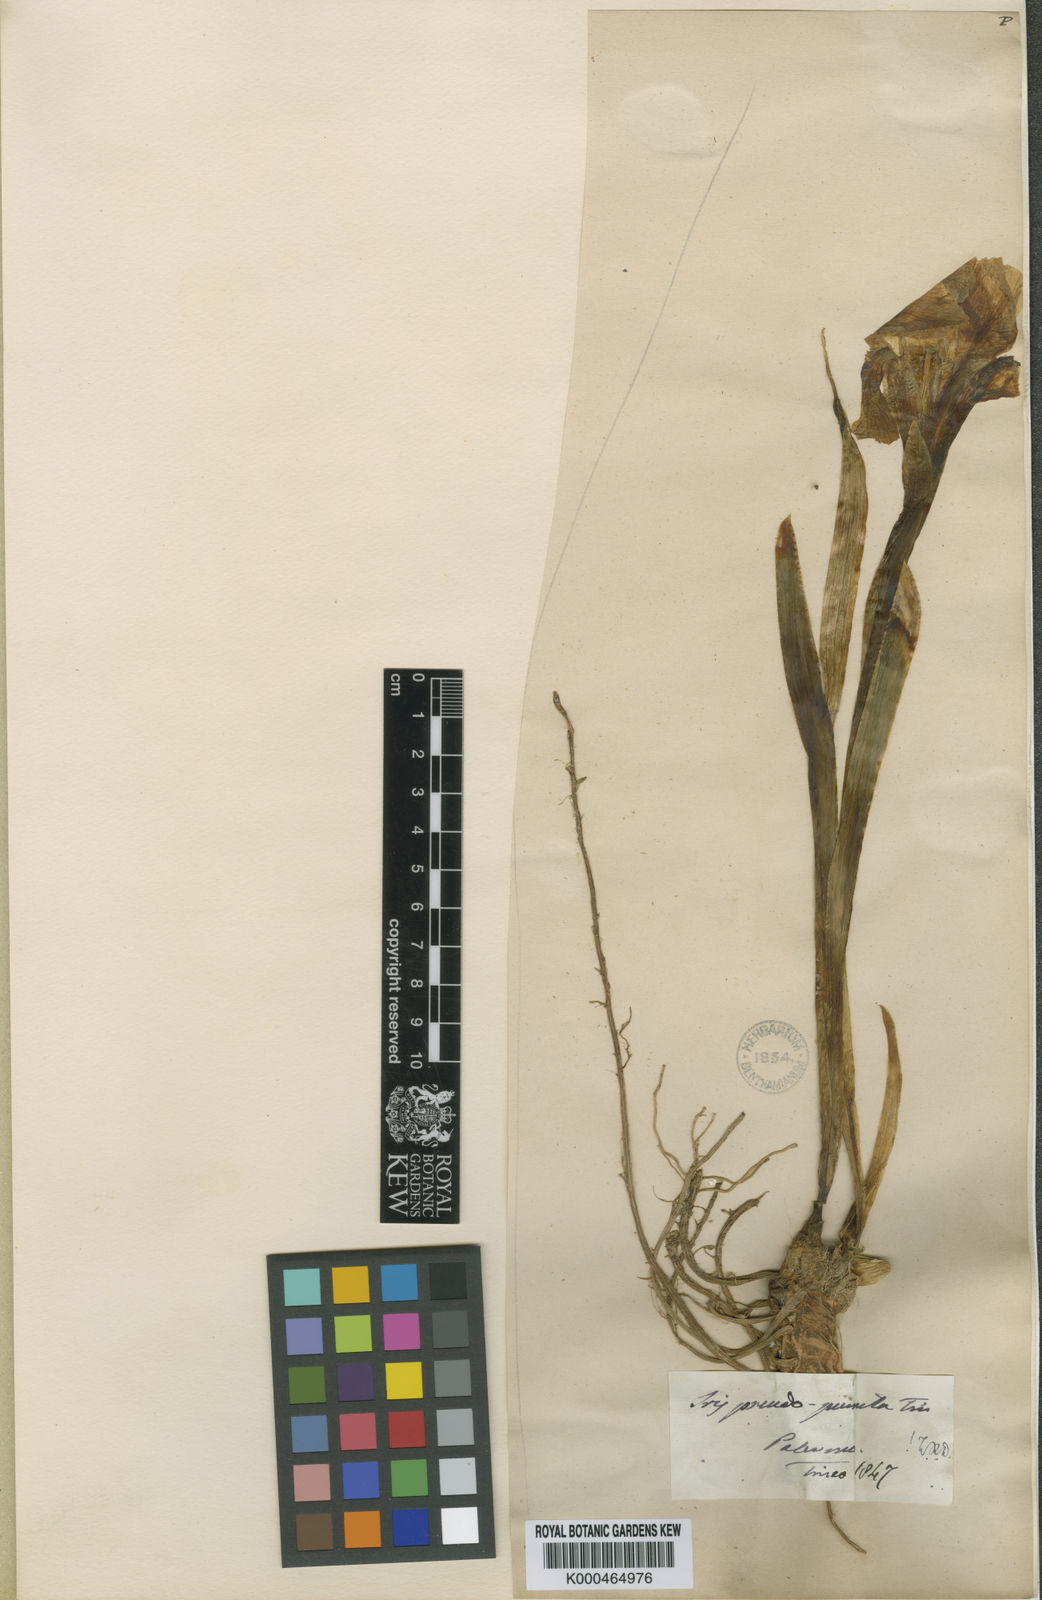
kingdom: Plantae
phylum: Tracheophyta
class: Liliopsida
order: Asparagales
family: Iridaceae
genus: Iris
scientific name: Iris pseudopumila
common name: Southern dwarf iris
